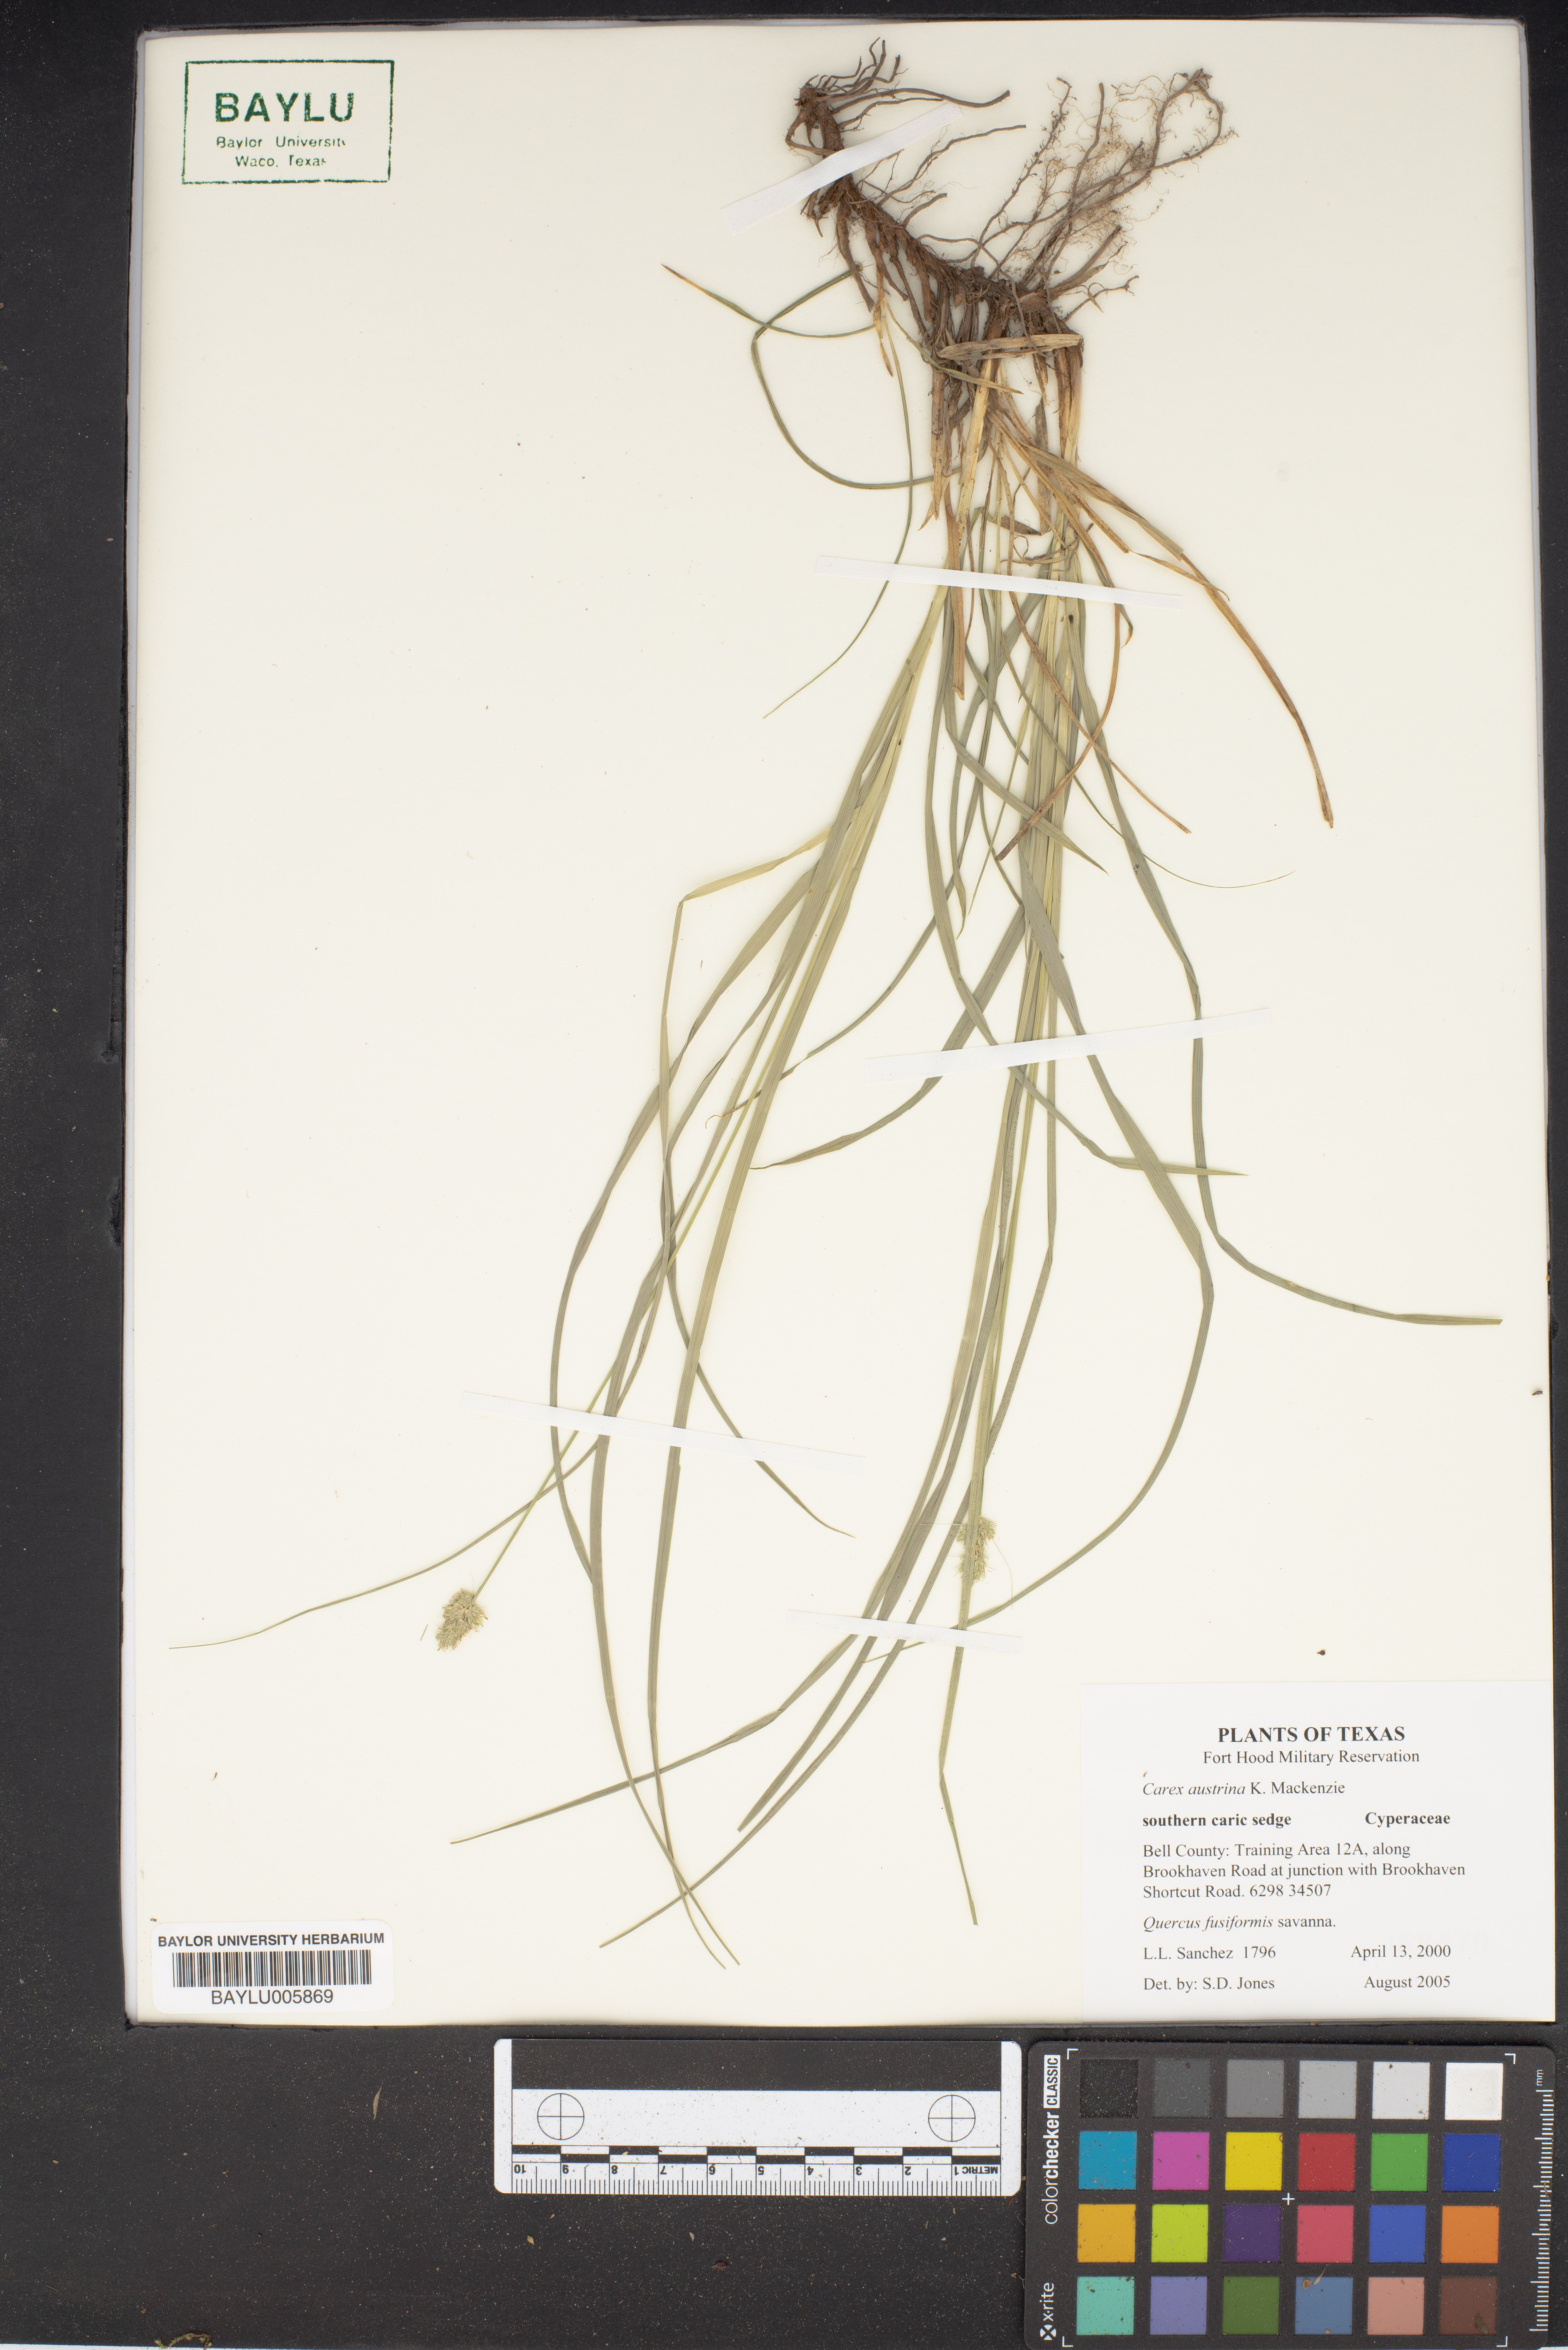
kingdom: Plantae
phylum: Tracheophyta
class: Liliopsida
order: Poales
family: Cyperaceae
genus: Carex
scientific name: Carex austrina
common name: Southern sedge
